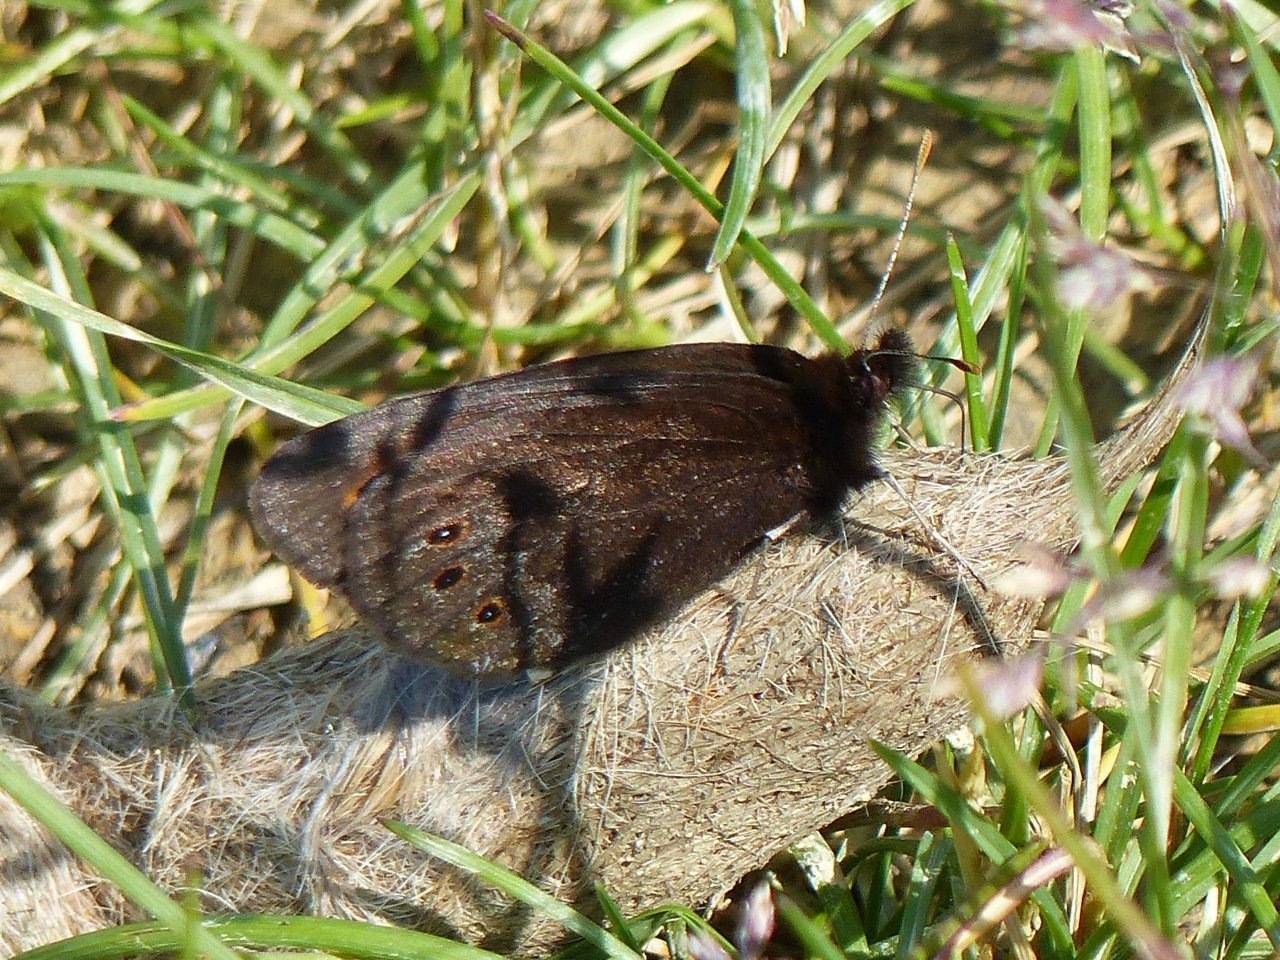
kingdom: Animalia
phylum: Arthropoda
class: Insecta
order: Lepidoptera
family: Nymphalidae
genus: Erebia
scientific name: Erebia epipsodea
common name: Common Alpine
